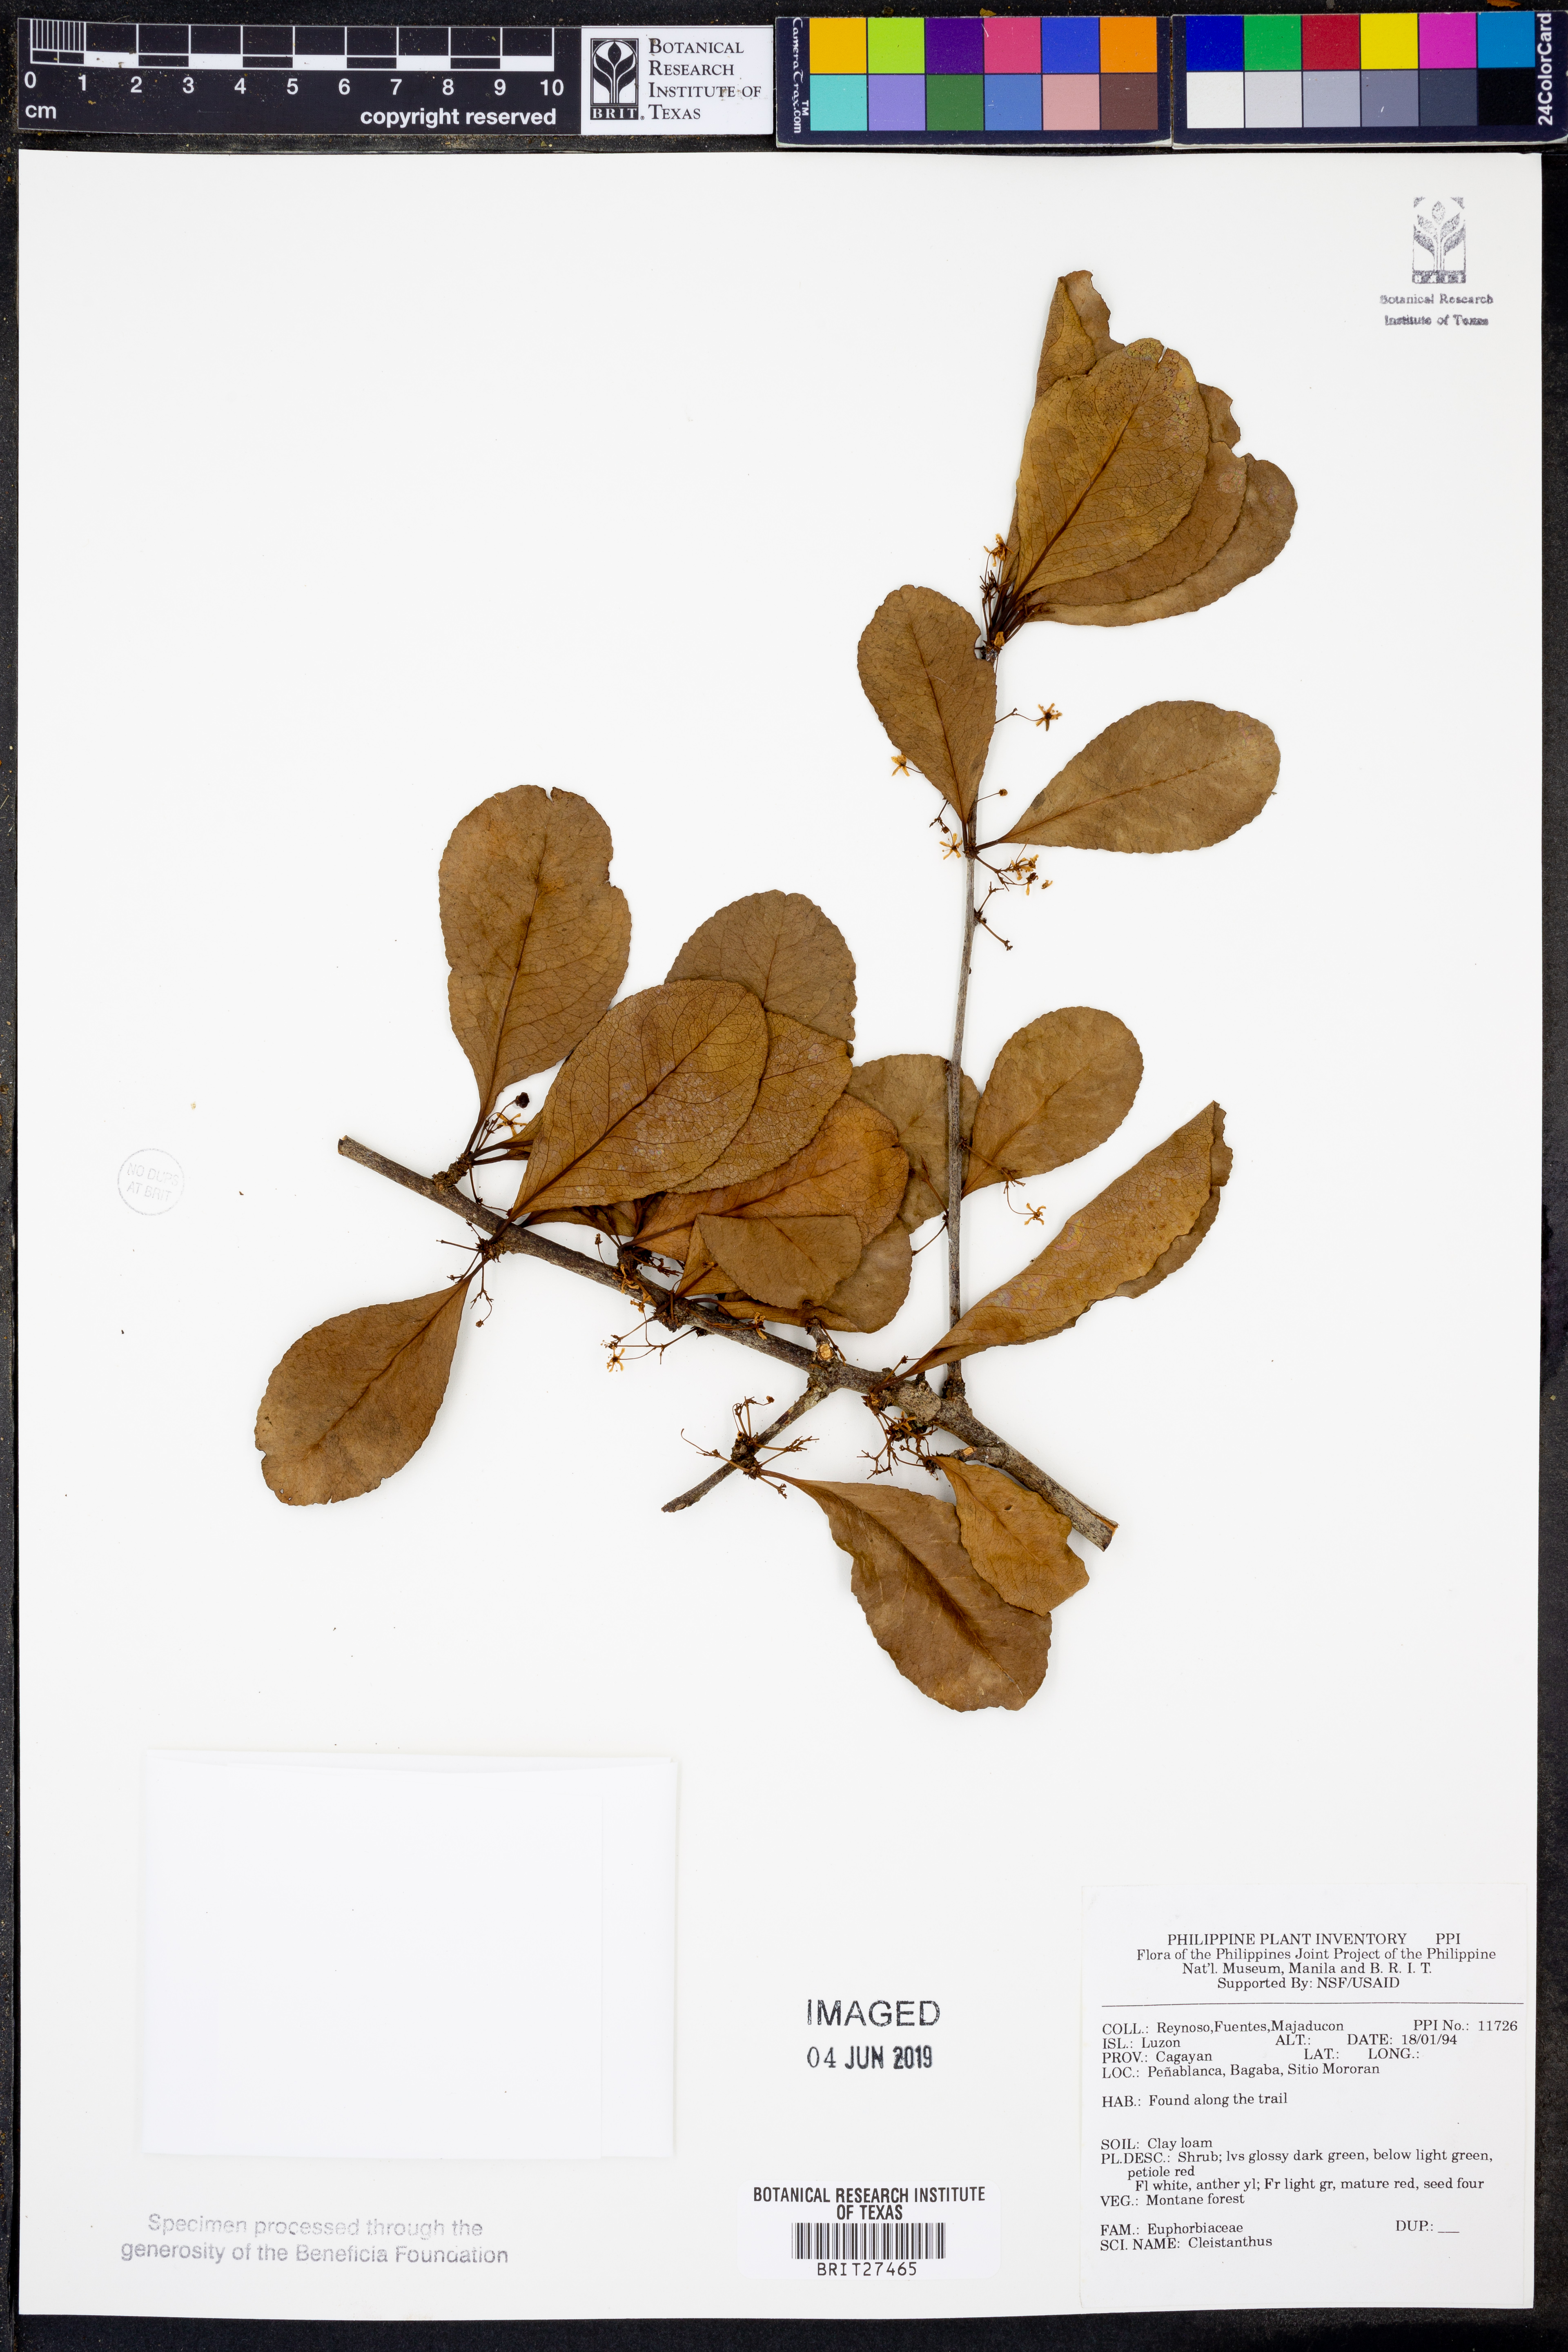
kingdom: Plantae
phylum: Tracheophyta
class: Magnoliopsida
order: Malpighiales
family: Phyllanthaceae
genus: Cleistanthus
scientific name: Cleistanthus
